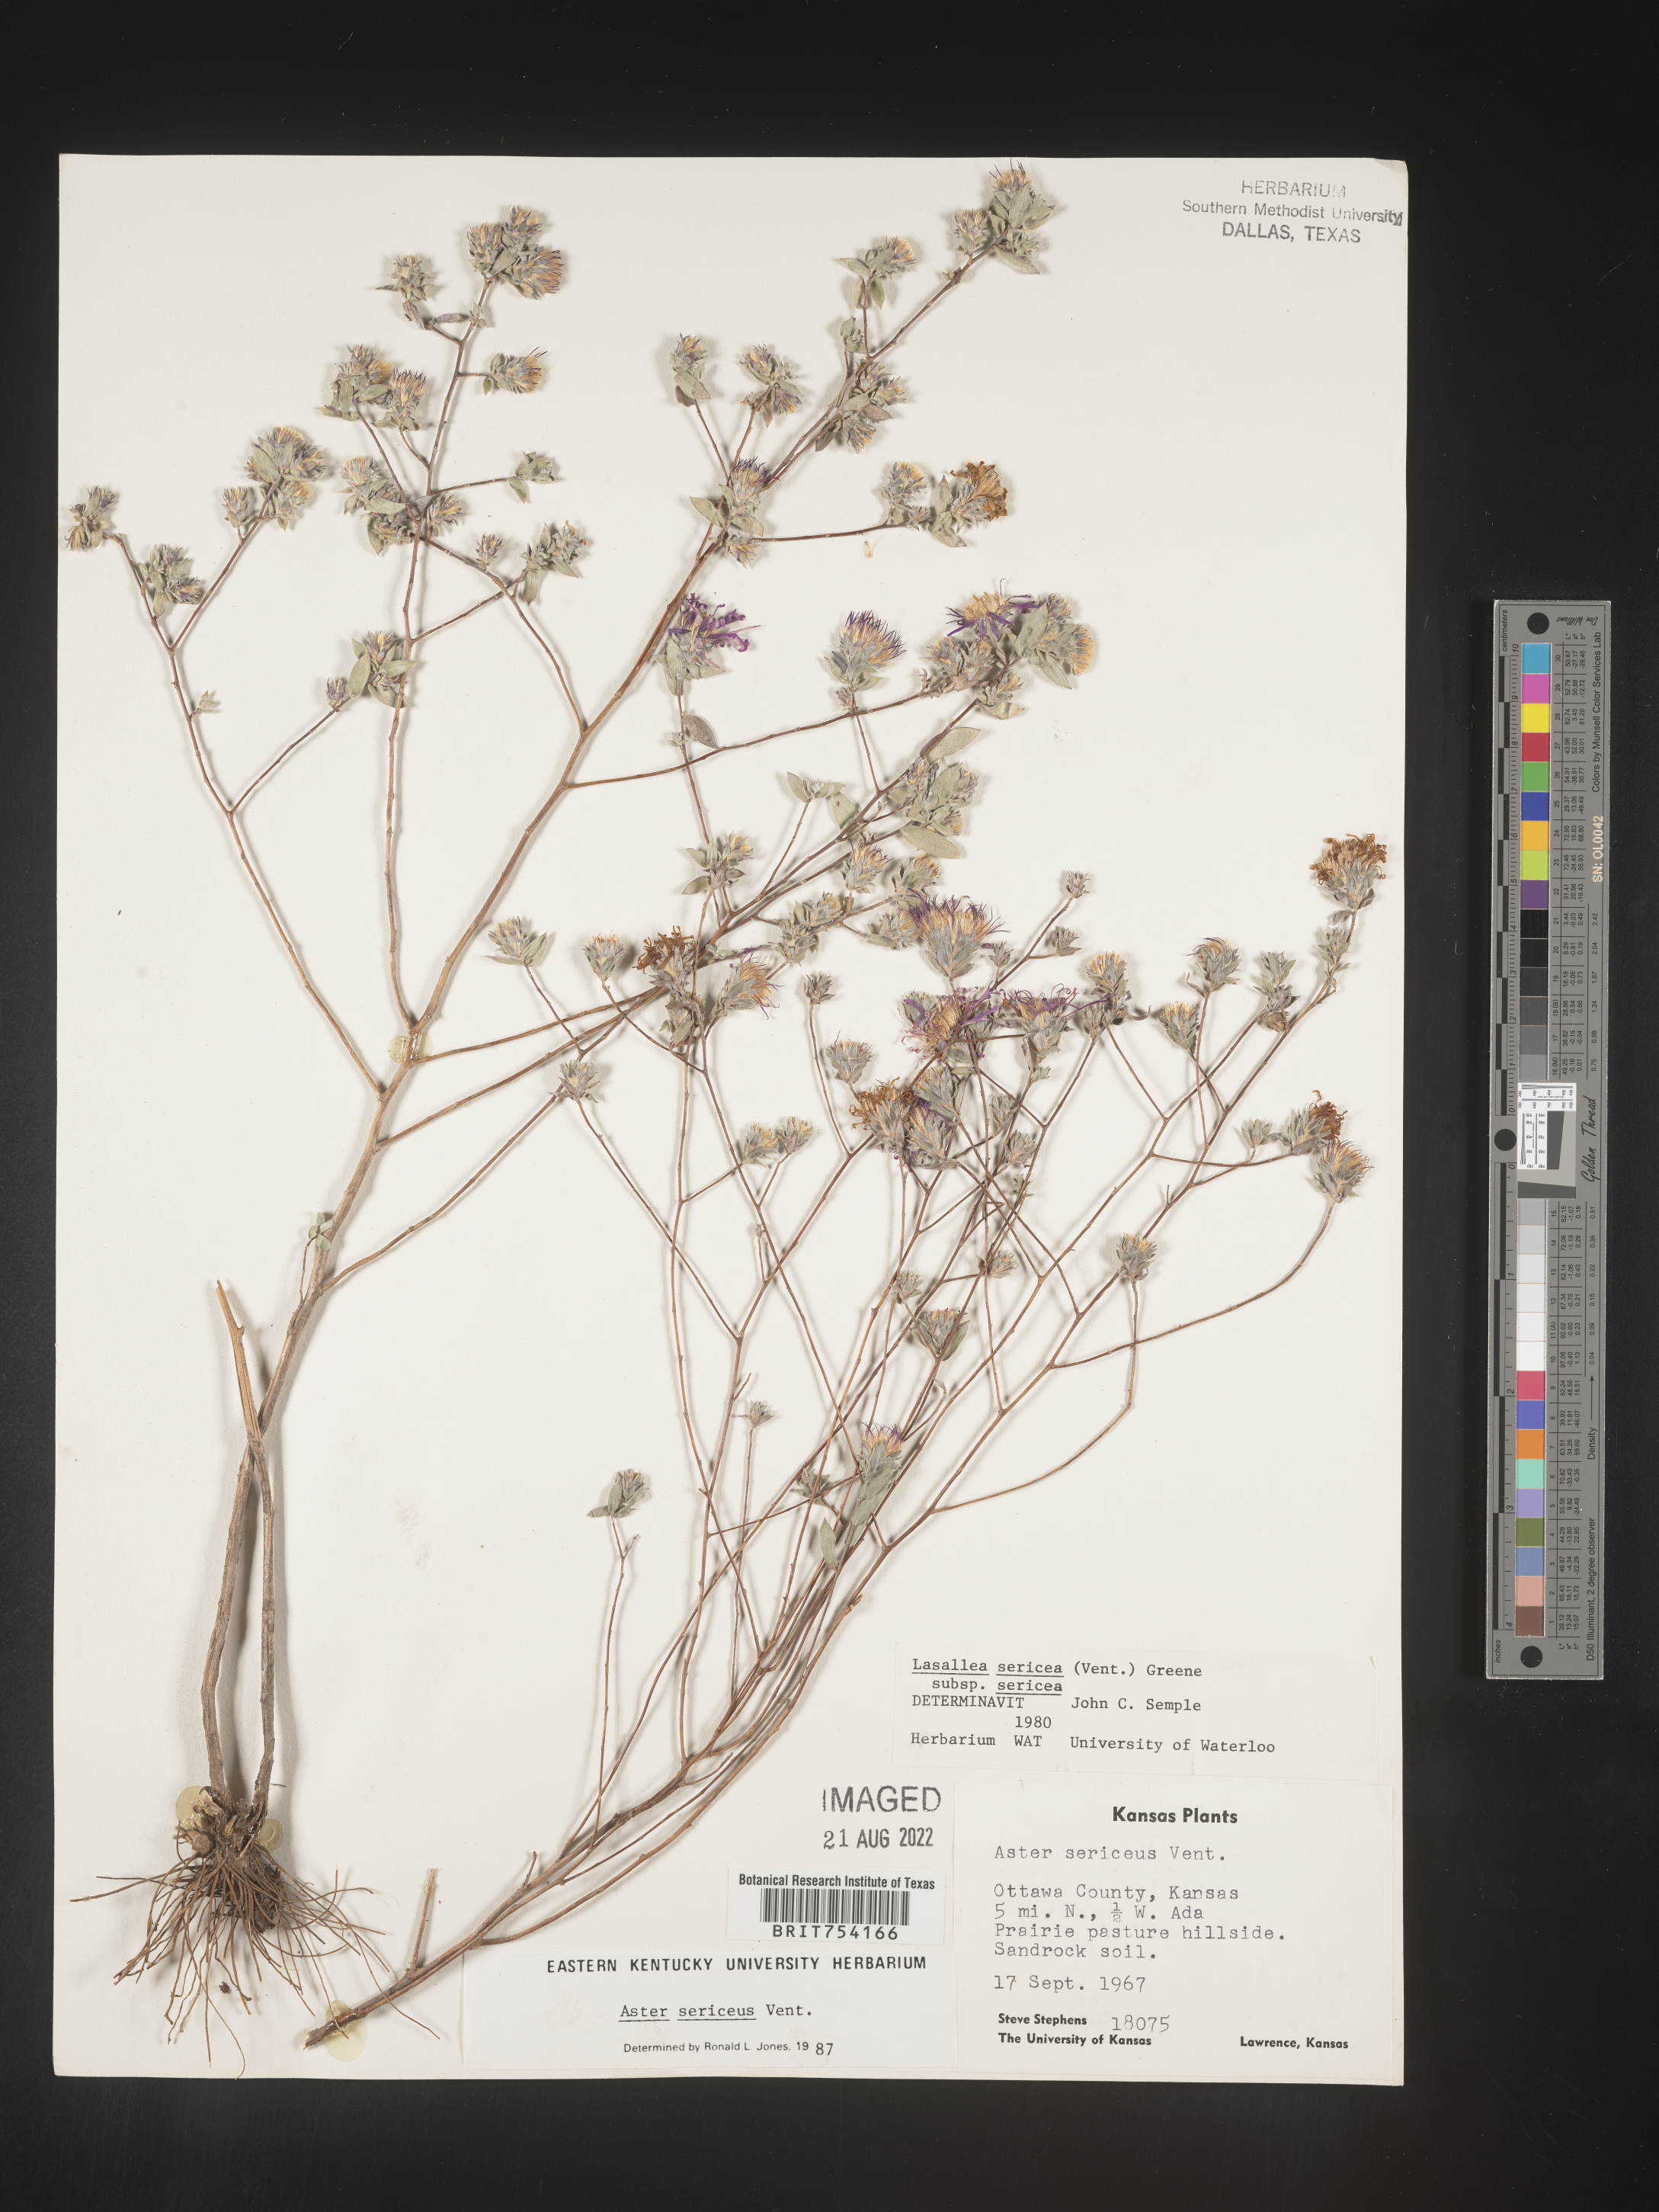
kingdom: Plantae
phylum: Tracheophyta
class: Magnoliopsida
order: Asterales
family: Asteraceae
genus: Symphyotrichum
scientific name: Symphyotrichum sericeum
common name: Silky aster
